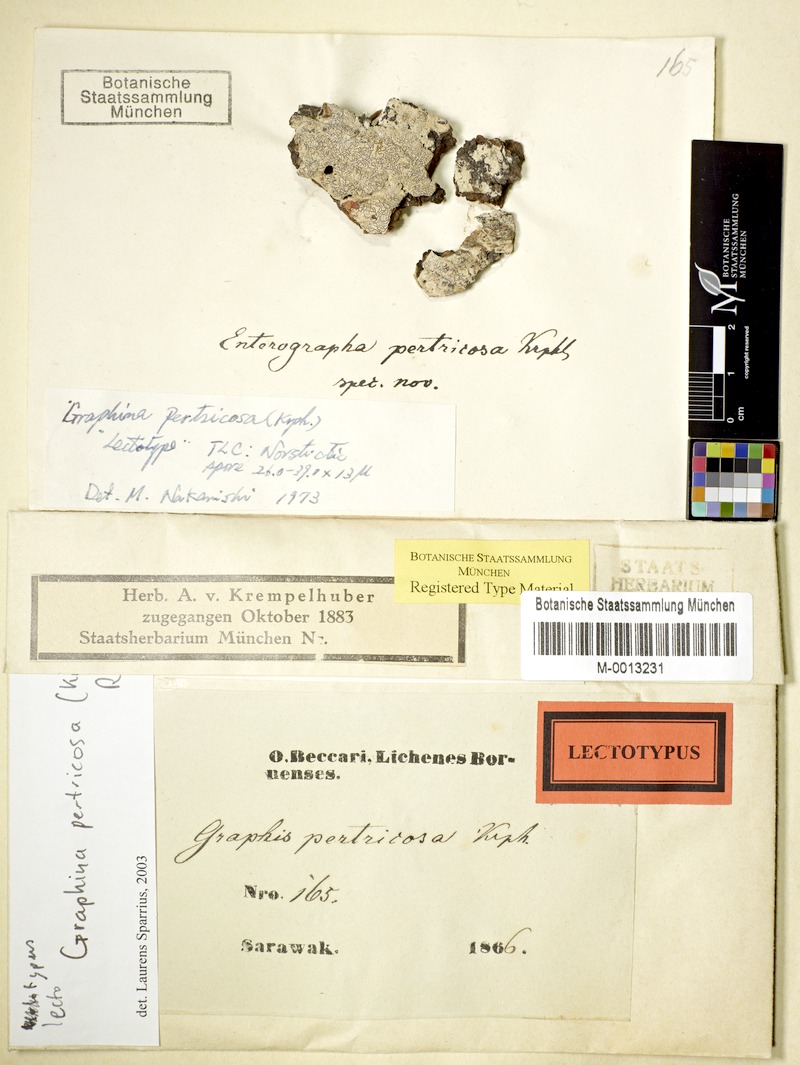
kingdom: Fungi
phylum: Ascomycota
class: Lecanoromycetes
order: Ostropales
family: Graphidaceae
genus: Graphis
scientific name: Graphis pertricosa
